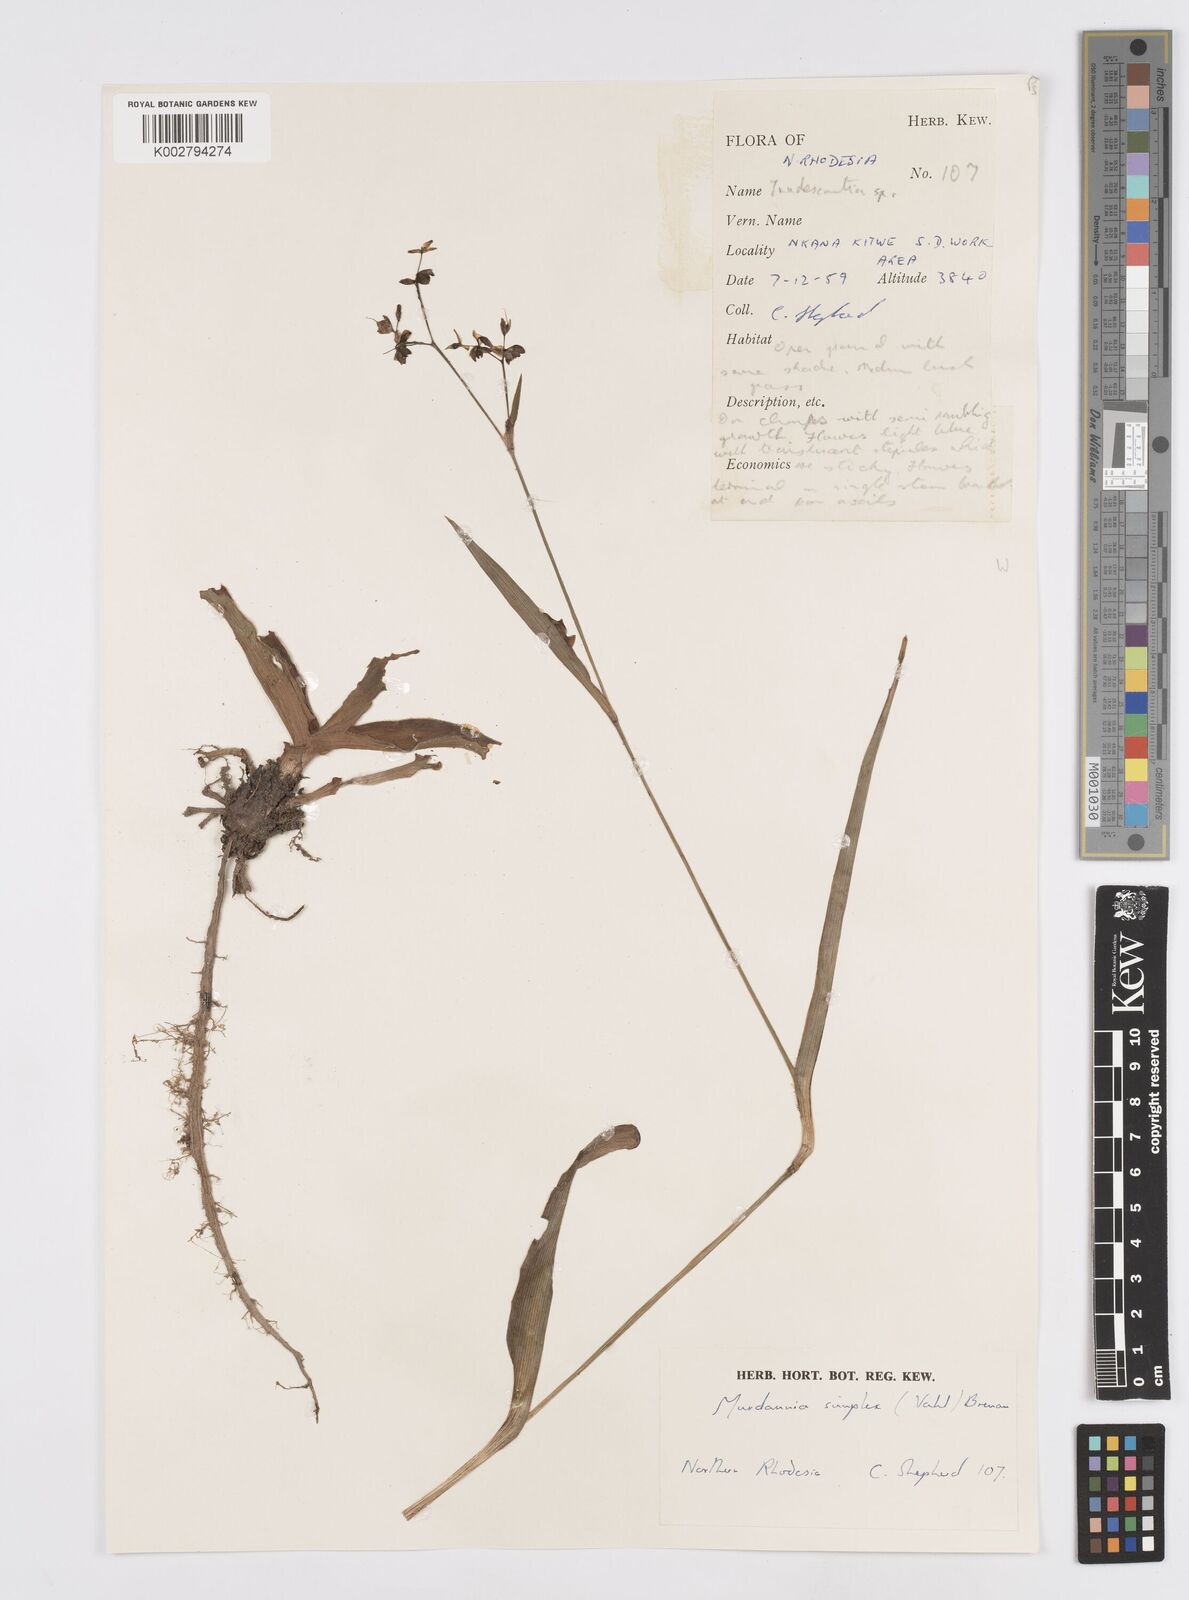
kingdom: Plantae
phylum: Tracheophyta
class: Liliopsida
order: Commelinales
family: Commelinaceae
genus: Murdannia
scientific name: Murdannia simplex
